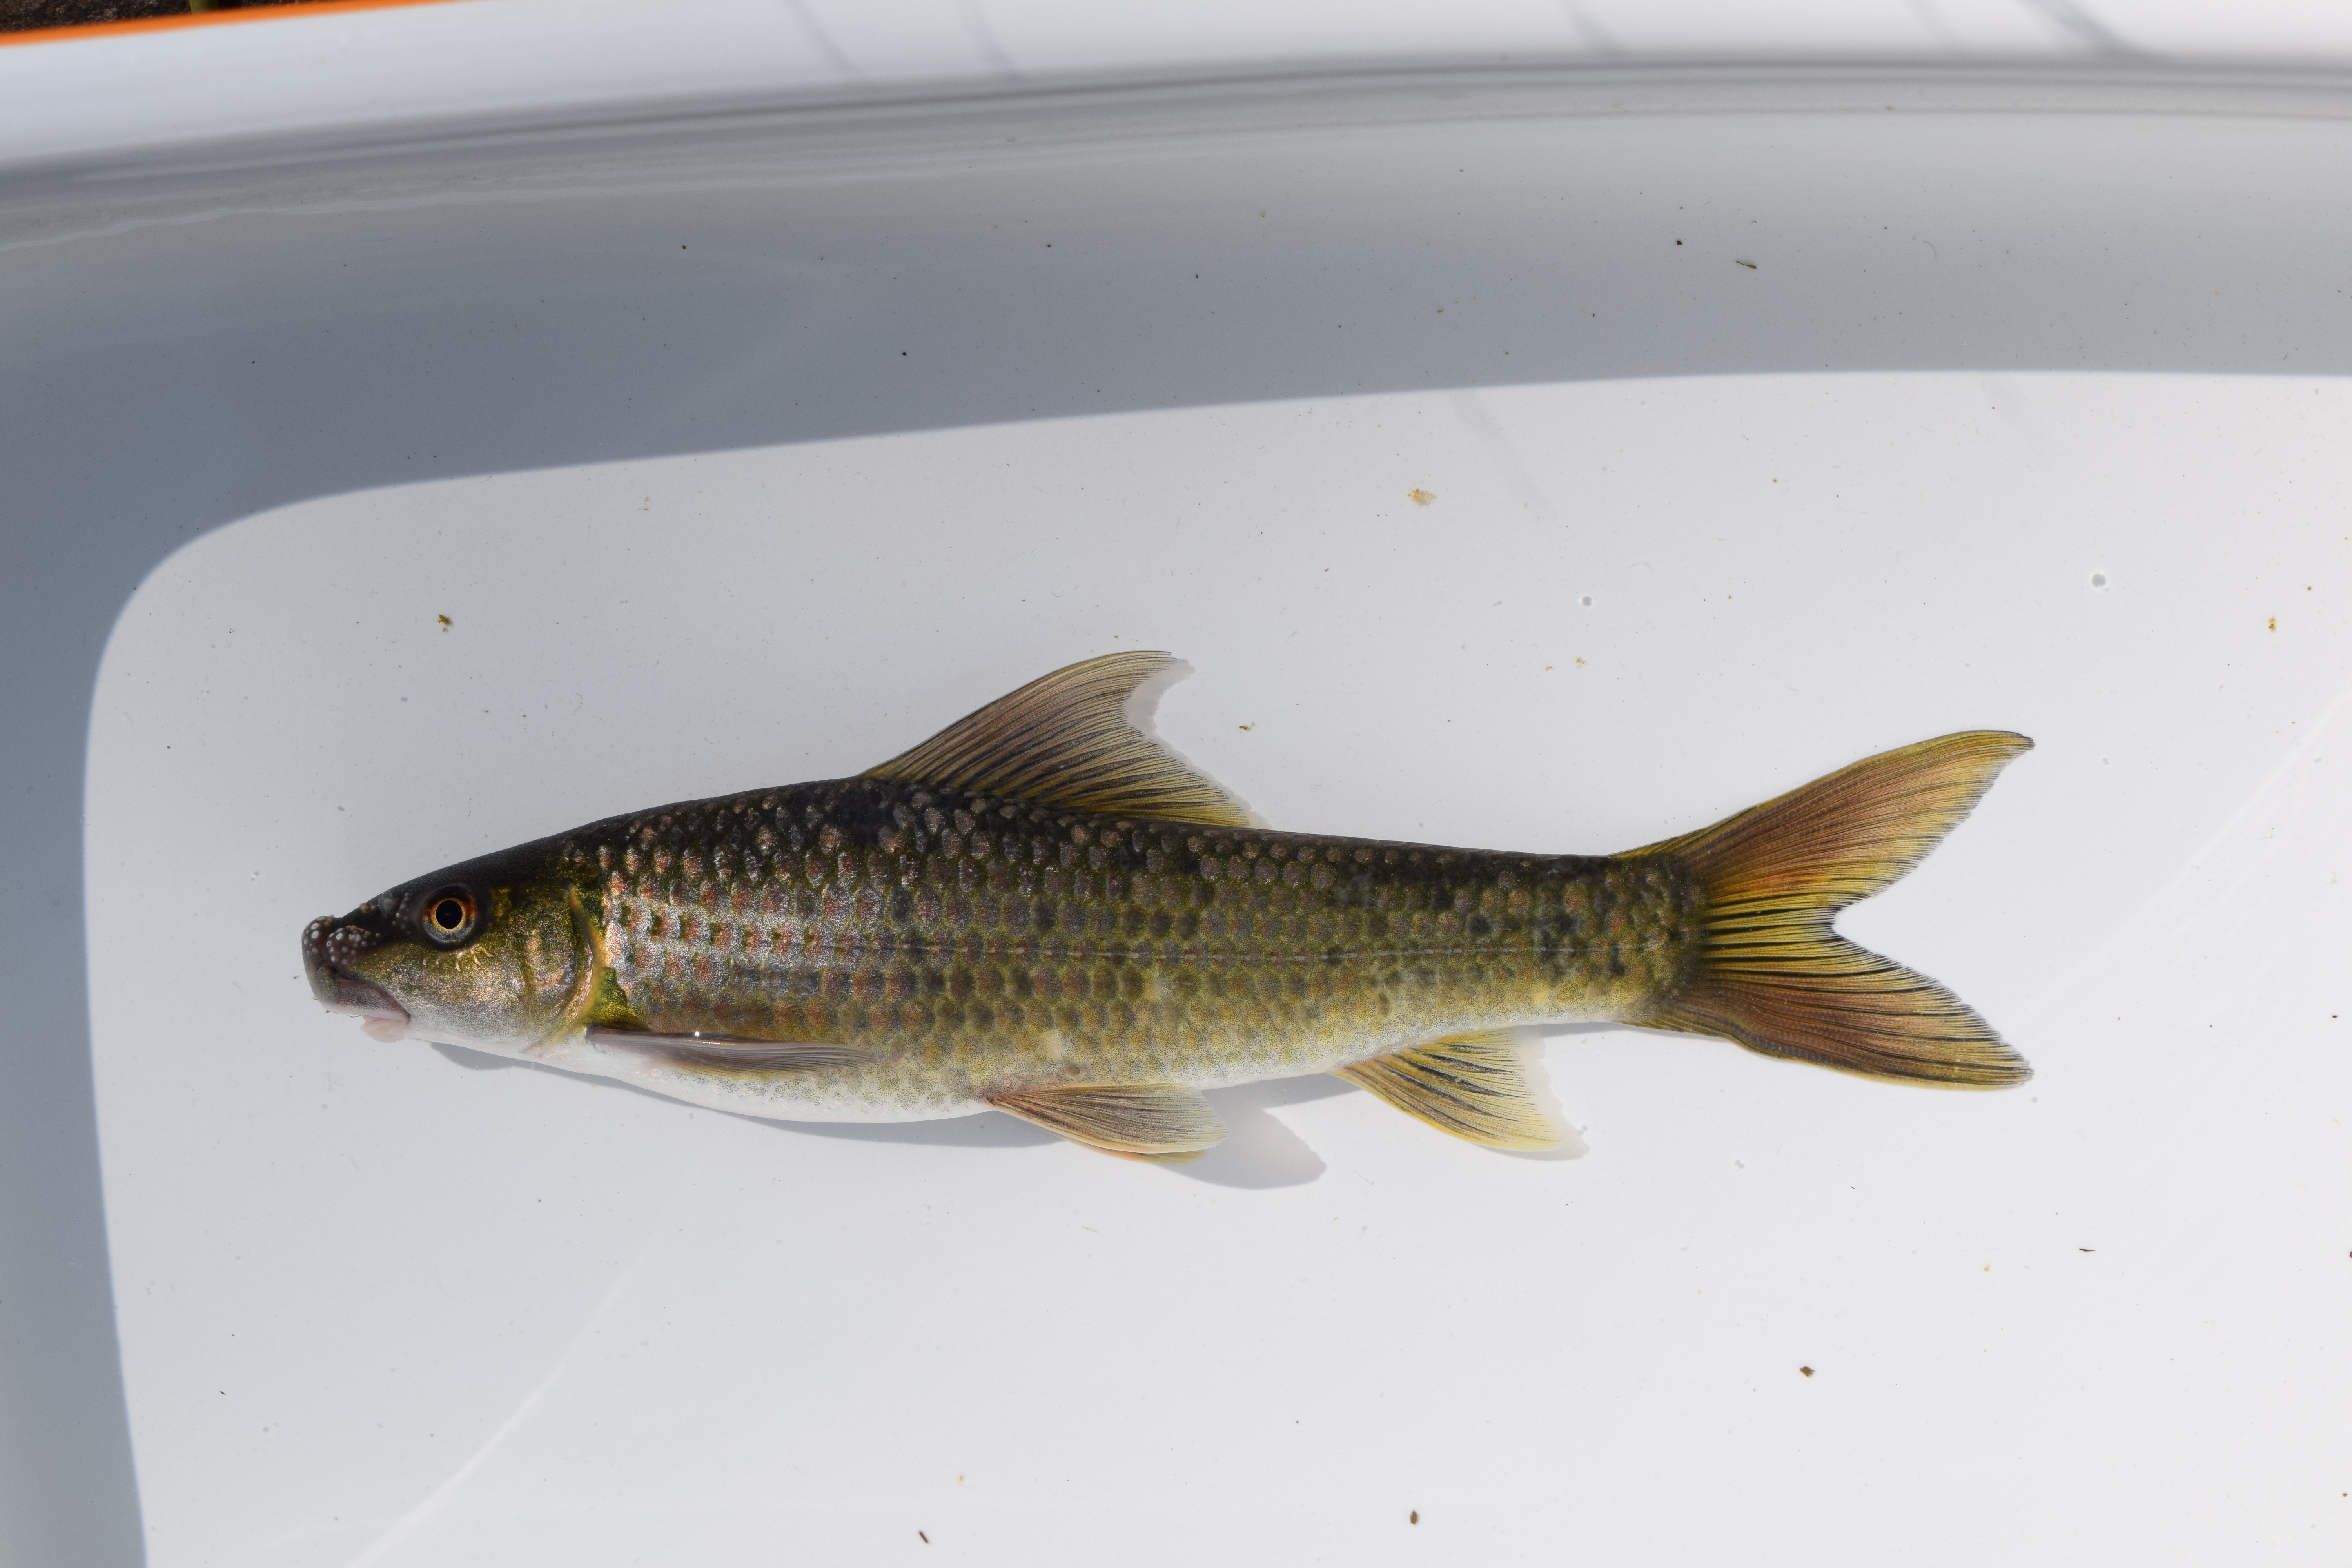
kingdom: Animalia
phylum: Chordata
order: Cypriniformes
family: Cyprinidae
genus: Labeo
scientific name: Labeo cylindricus
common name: Redeye labeo
